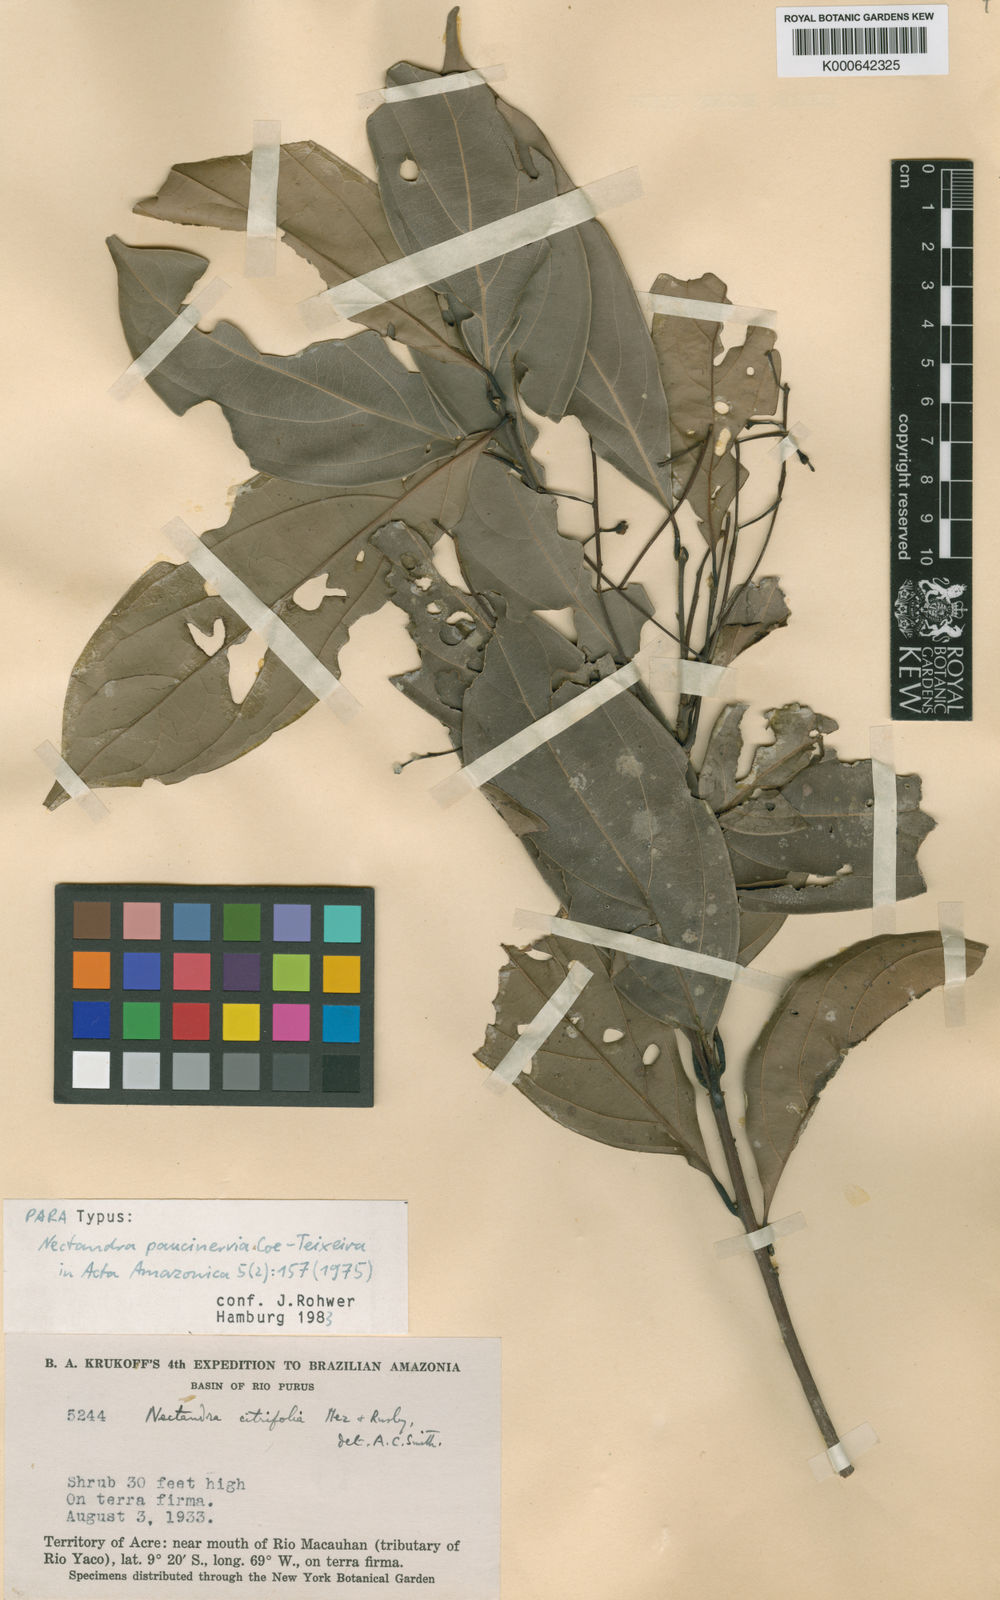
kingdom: Plantae
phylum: Tracheophyta
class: Magnoliopsida
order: Laurales
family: Lauraceae
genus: Nectandra
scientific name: Nectandra paucinervia
